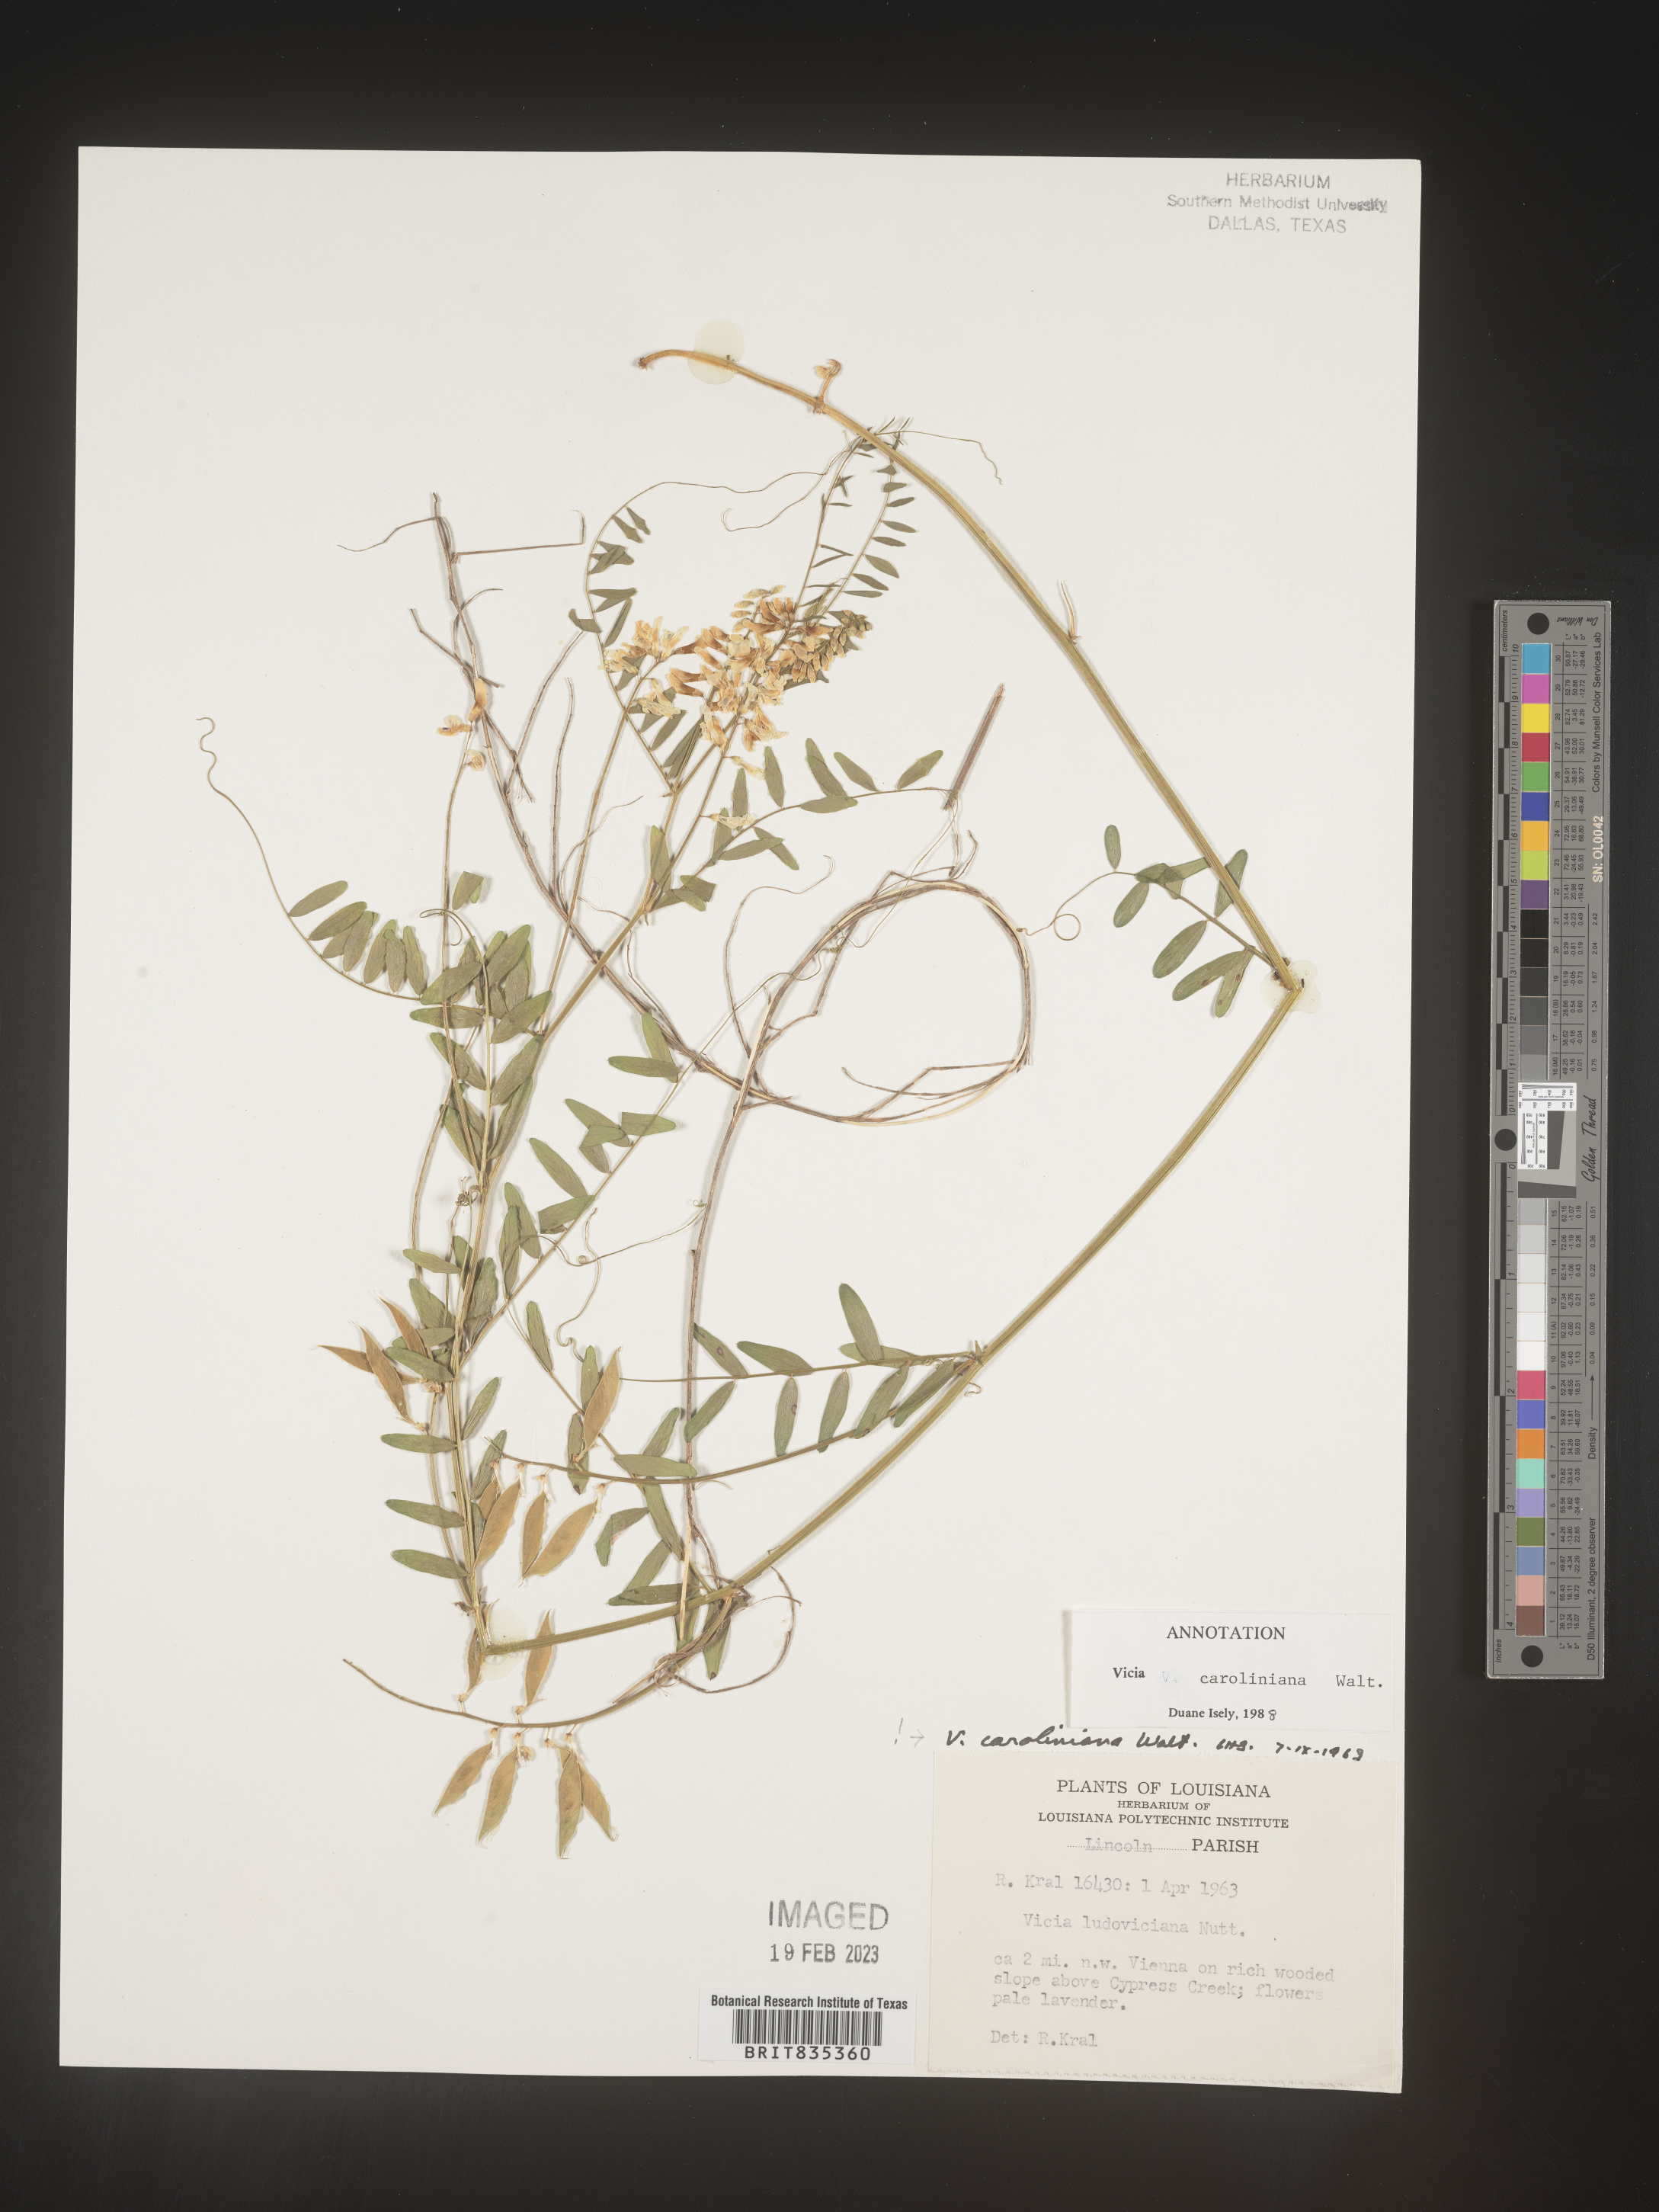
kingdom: Plantae
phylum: Tracheophyta
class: Magnoliopsida
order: Fabales
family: Fabaceae
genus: Vicia
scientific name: Vicia caroliniana
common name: Carolina vetch
